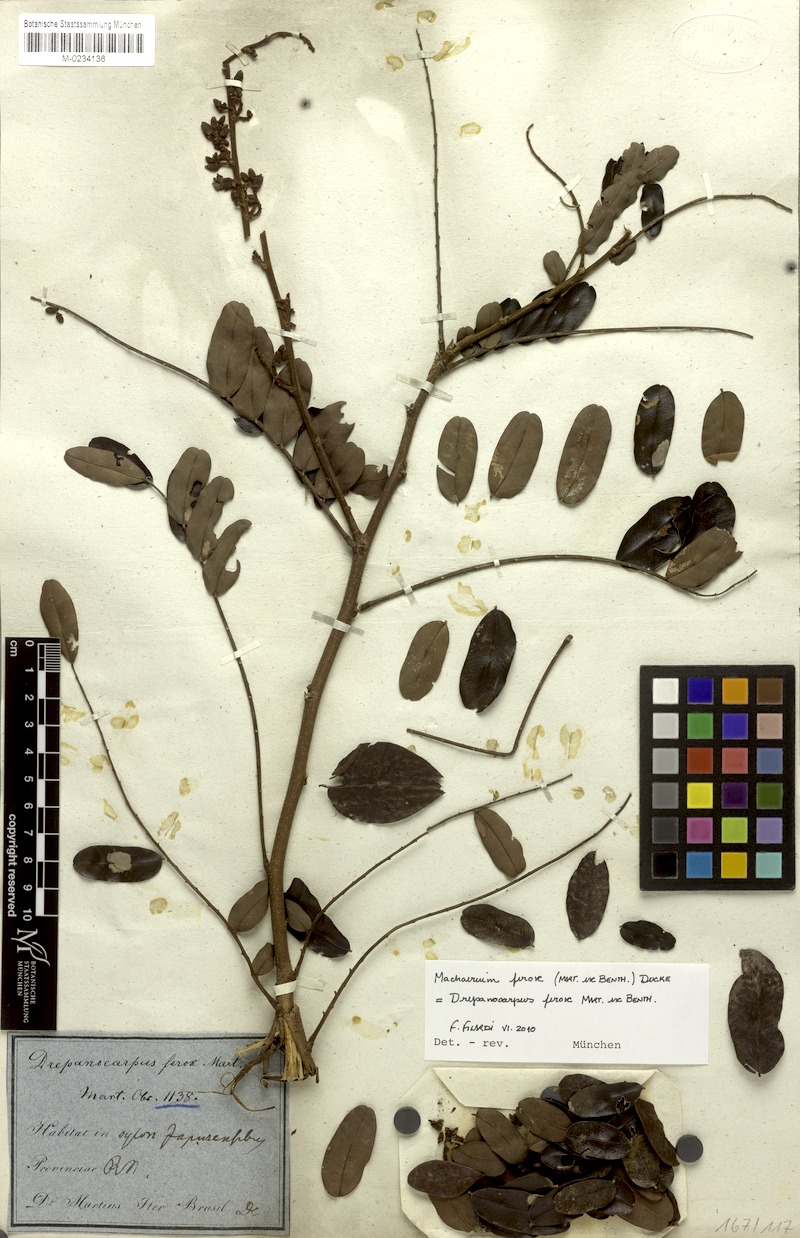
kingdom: Plantae
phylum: Tracheophyta
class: Magnoliopsida
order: Fabales
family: Fabaceae
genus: Machaerium
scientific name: Machaerium ferox
